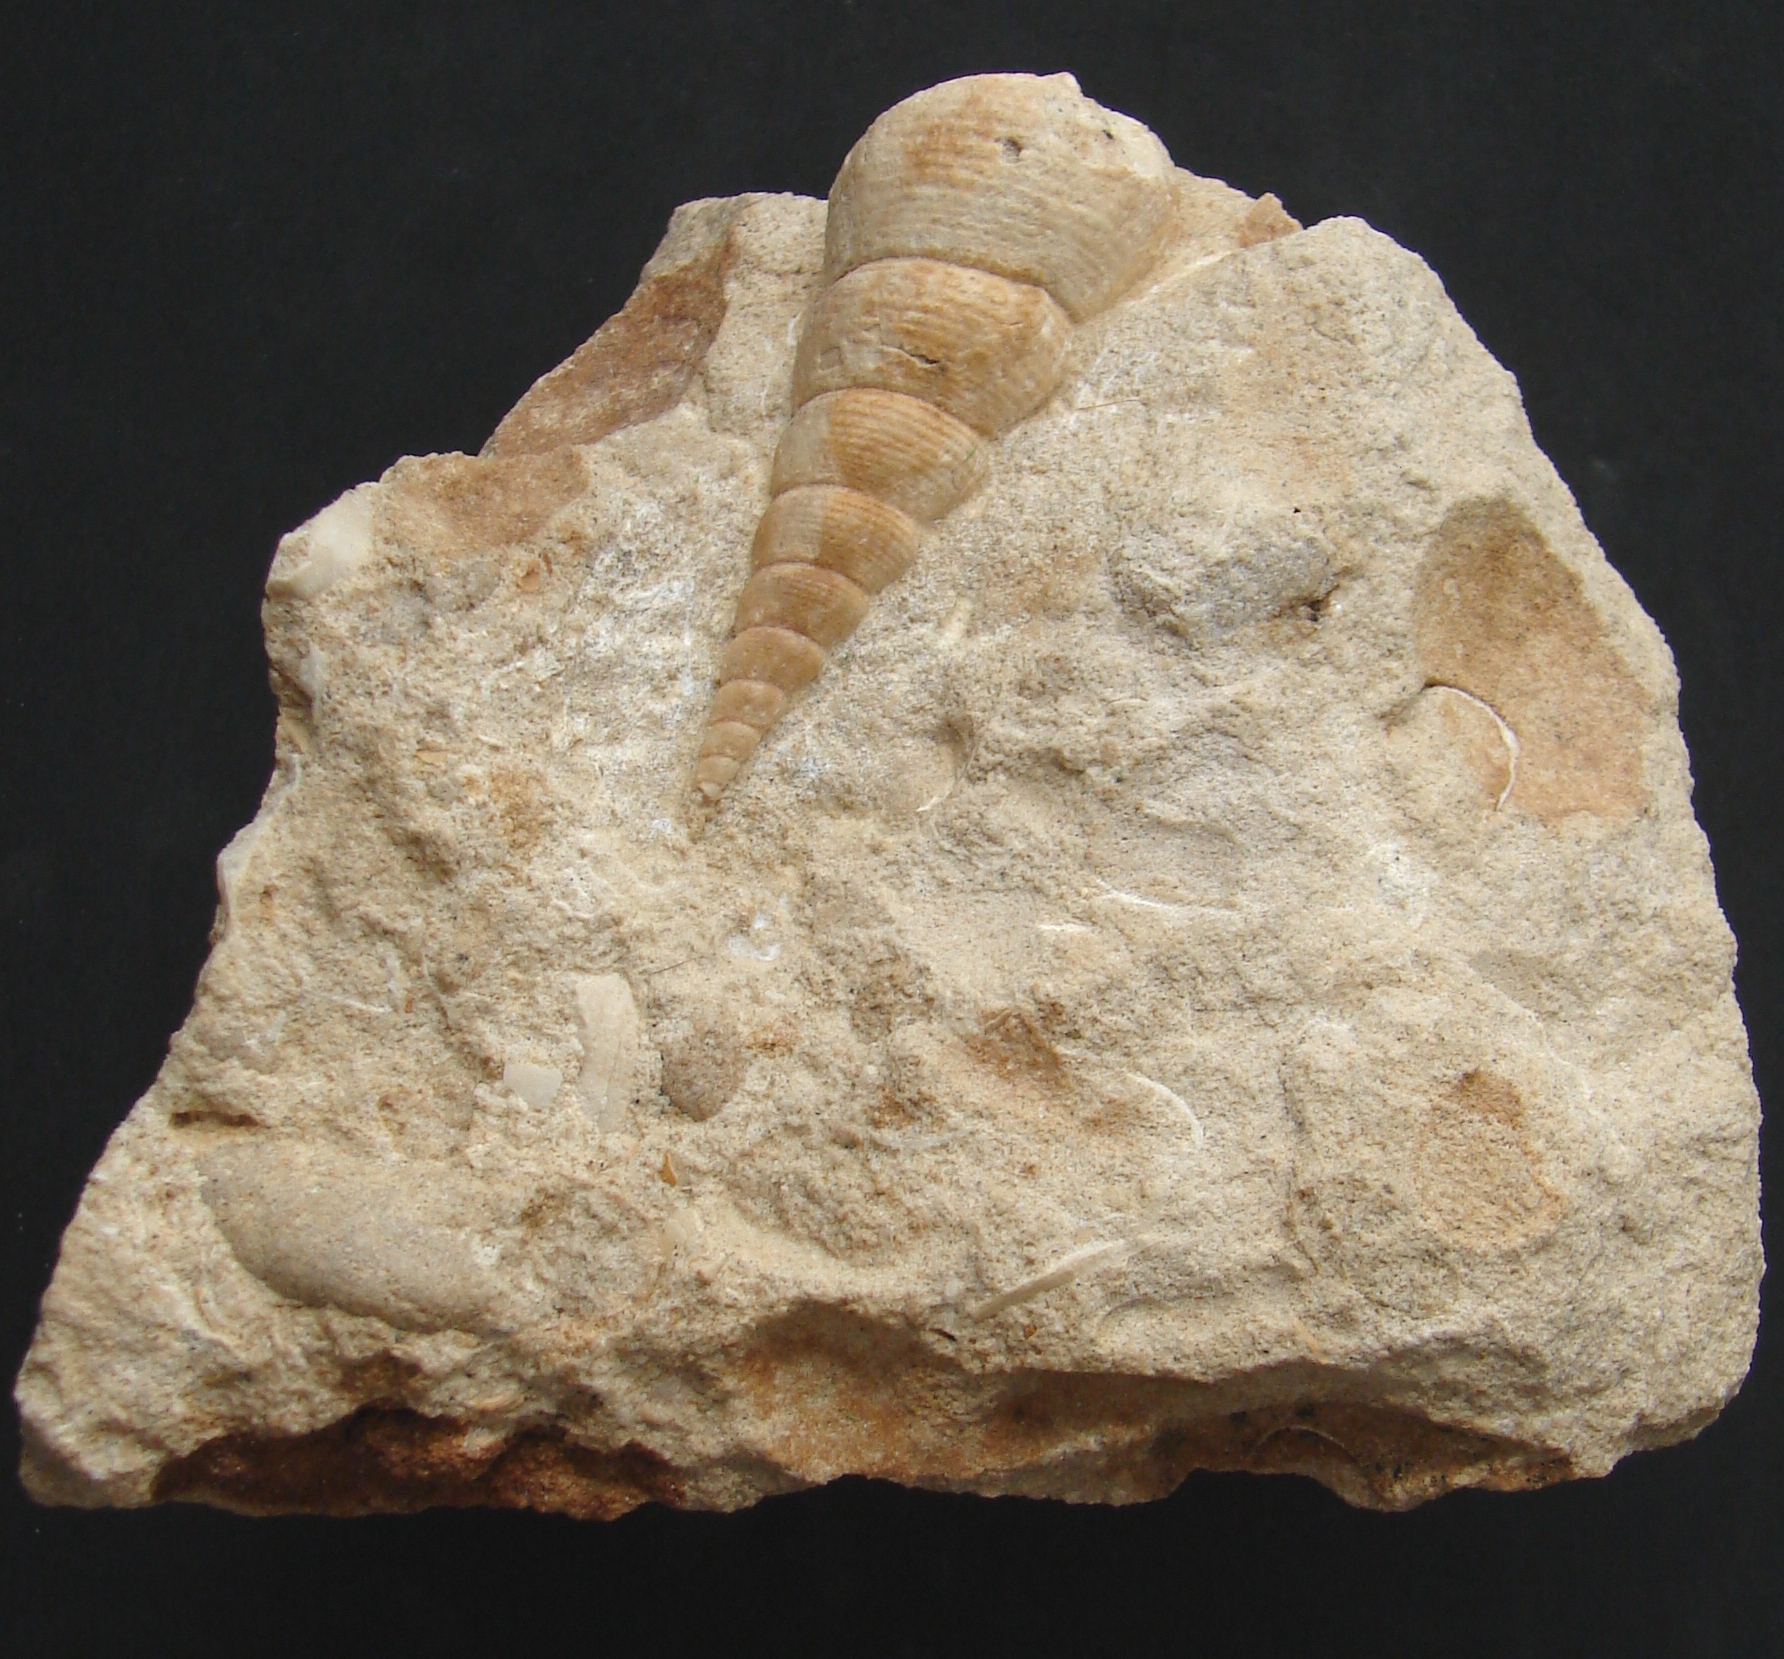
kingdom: Animalia
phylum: Mollusca
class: Gastropoda
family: Pseudomelaniidae
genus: Bourgetia
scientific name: Bourgetia
